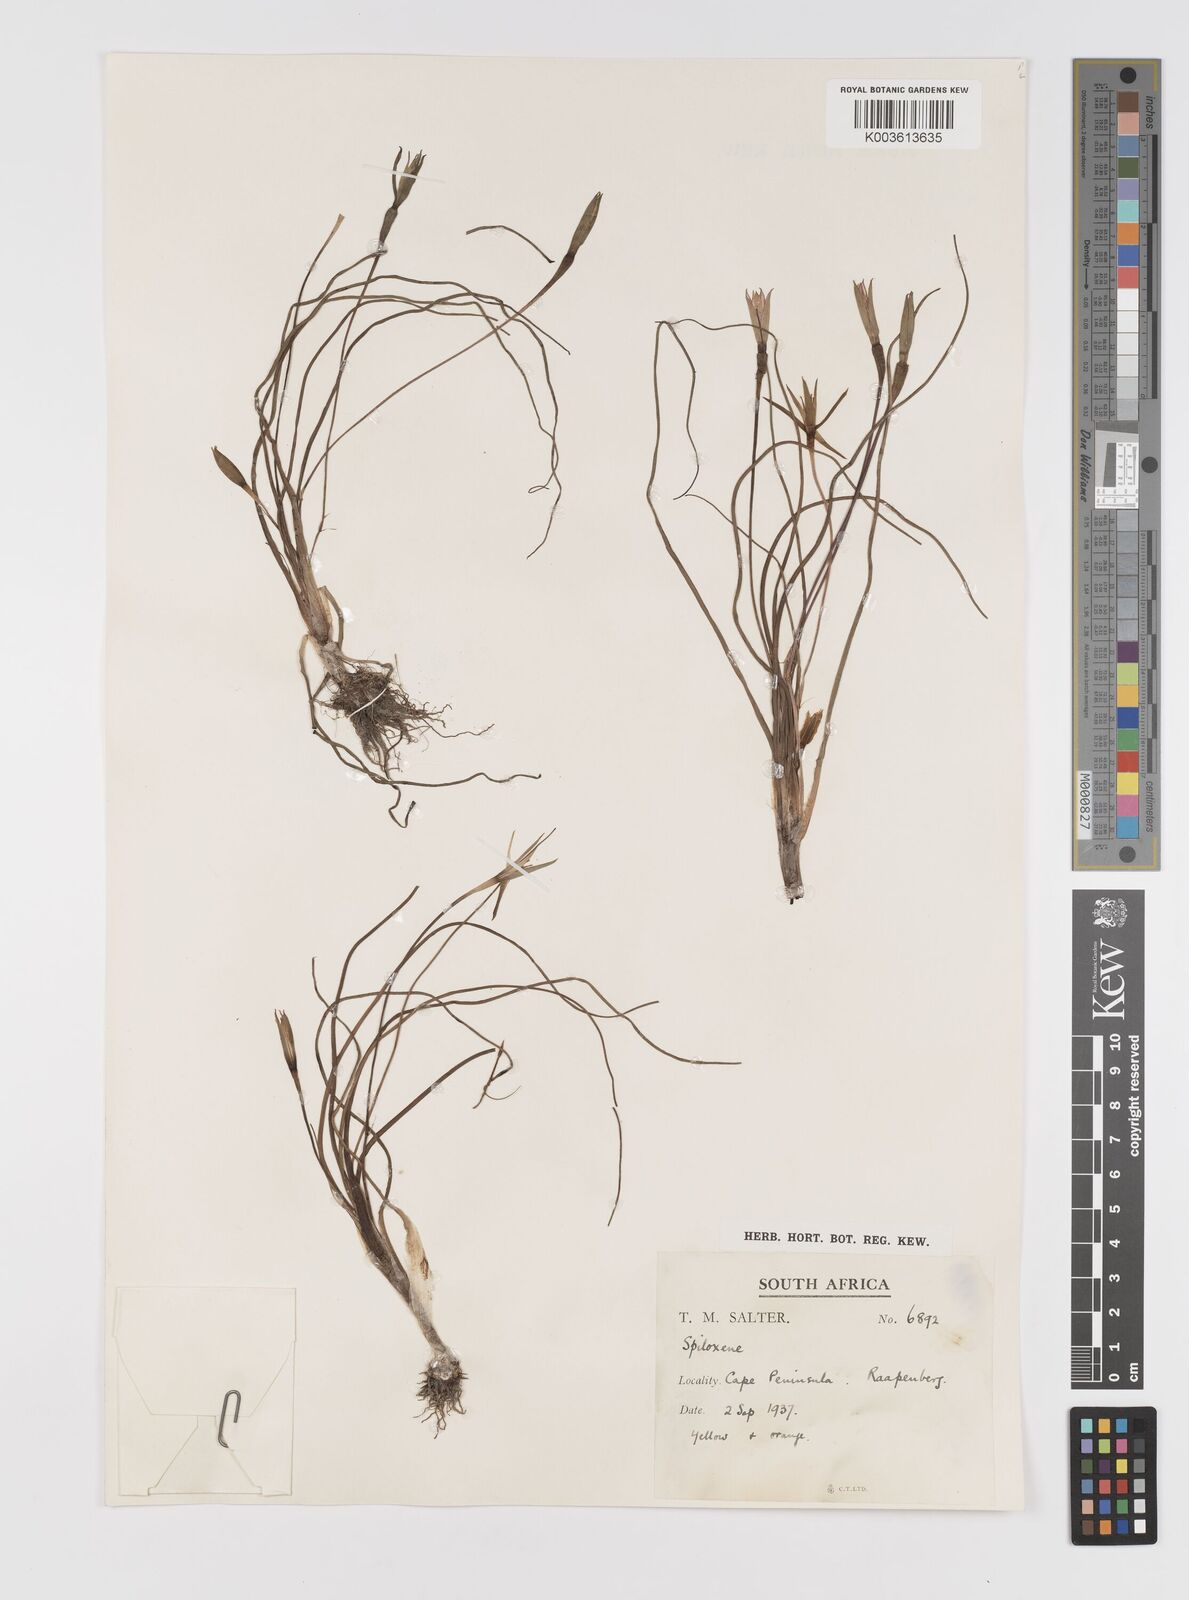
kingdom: Plantae
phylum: Tracheophyta
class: Liliopsida
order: Asparagales
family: Hypoxidaceae
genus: Pauridia
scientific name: Pauridia
